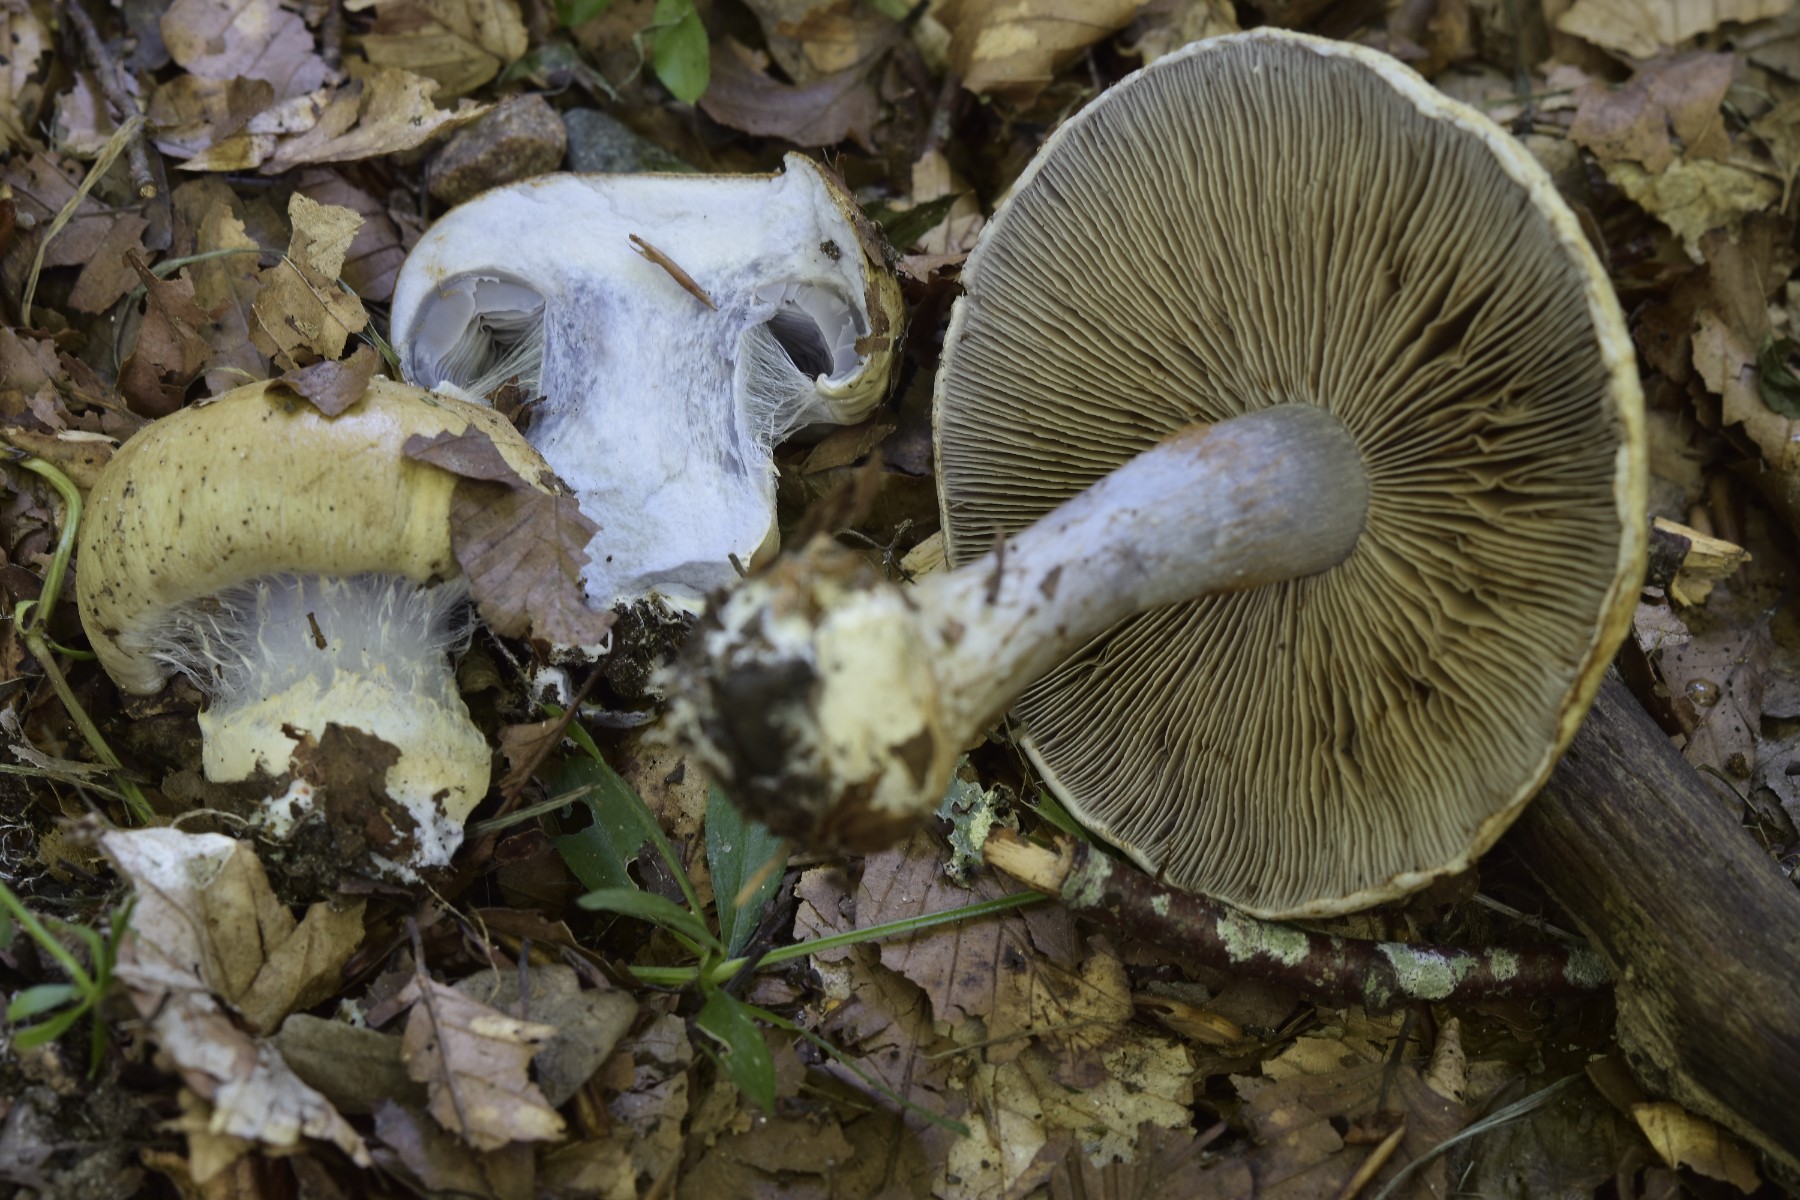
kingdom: Fungi
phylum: Basidiomycota
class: Agaricomycetes
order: Agaricales
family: Cortinariaceae
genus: Cortinarius
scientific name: Cortinarius anserinus
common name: bøge-slørhat
